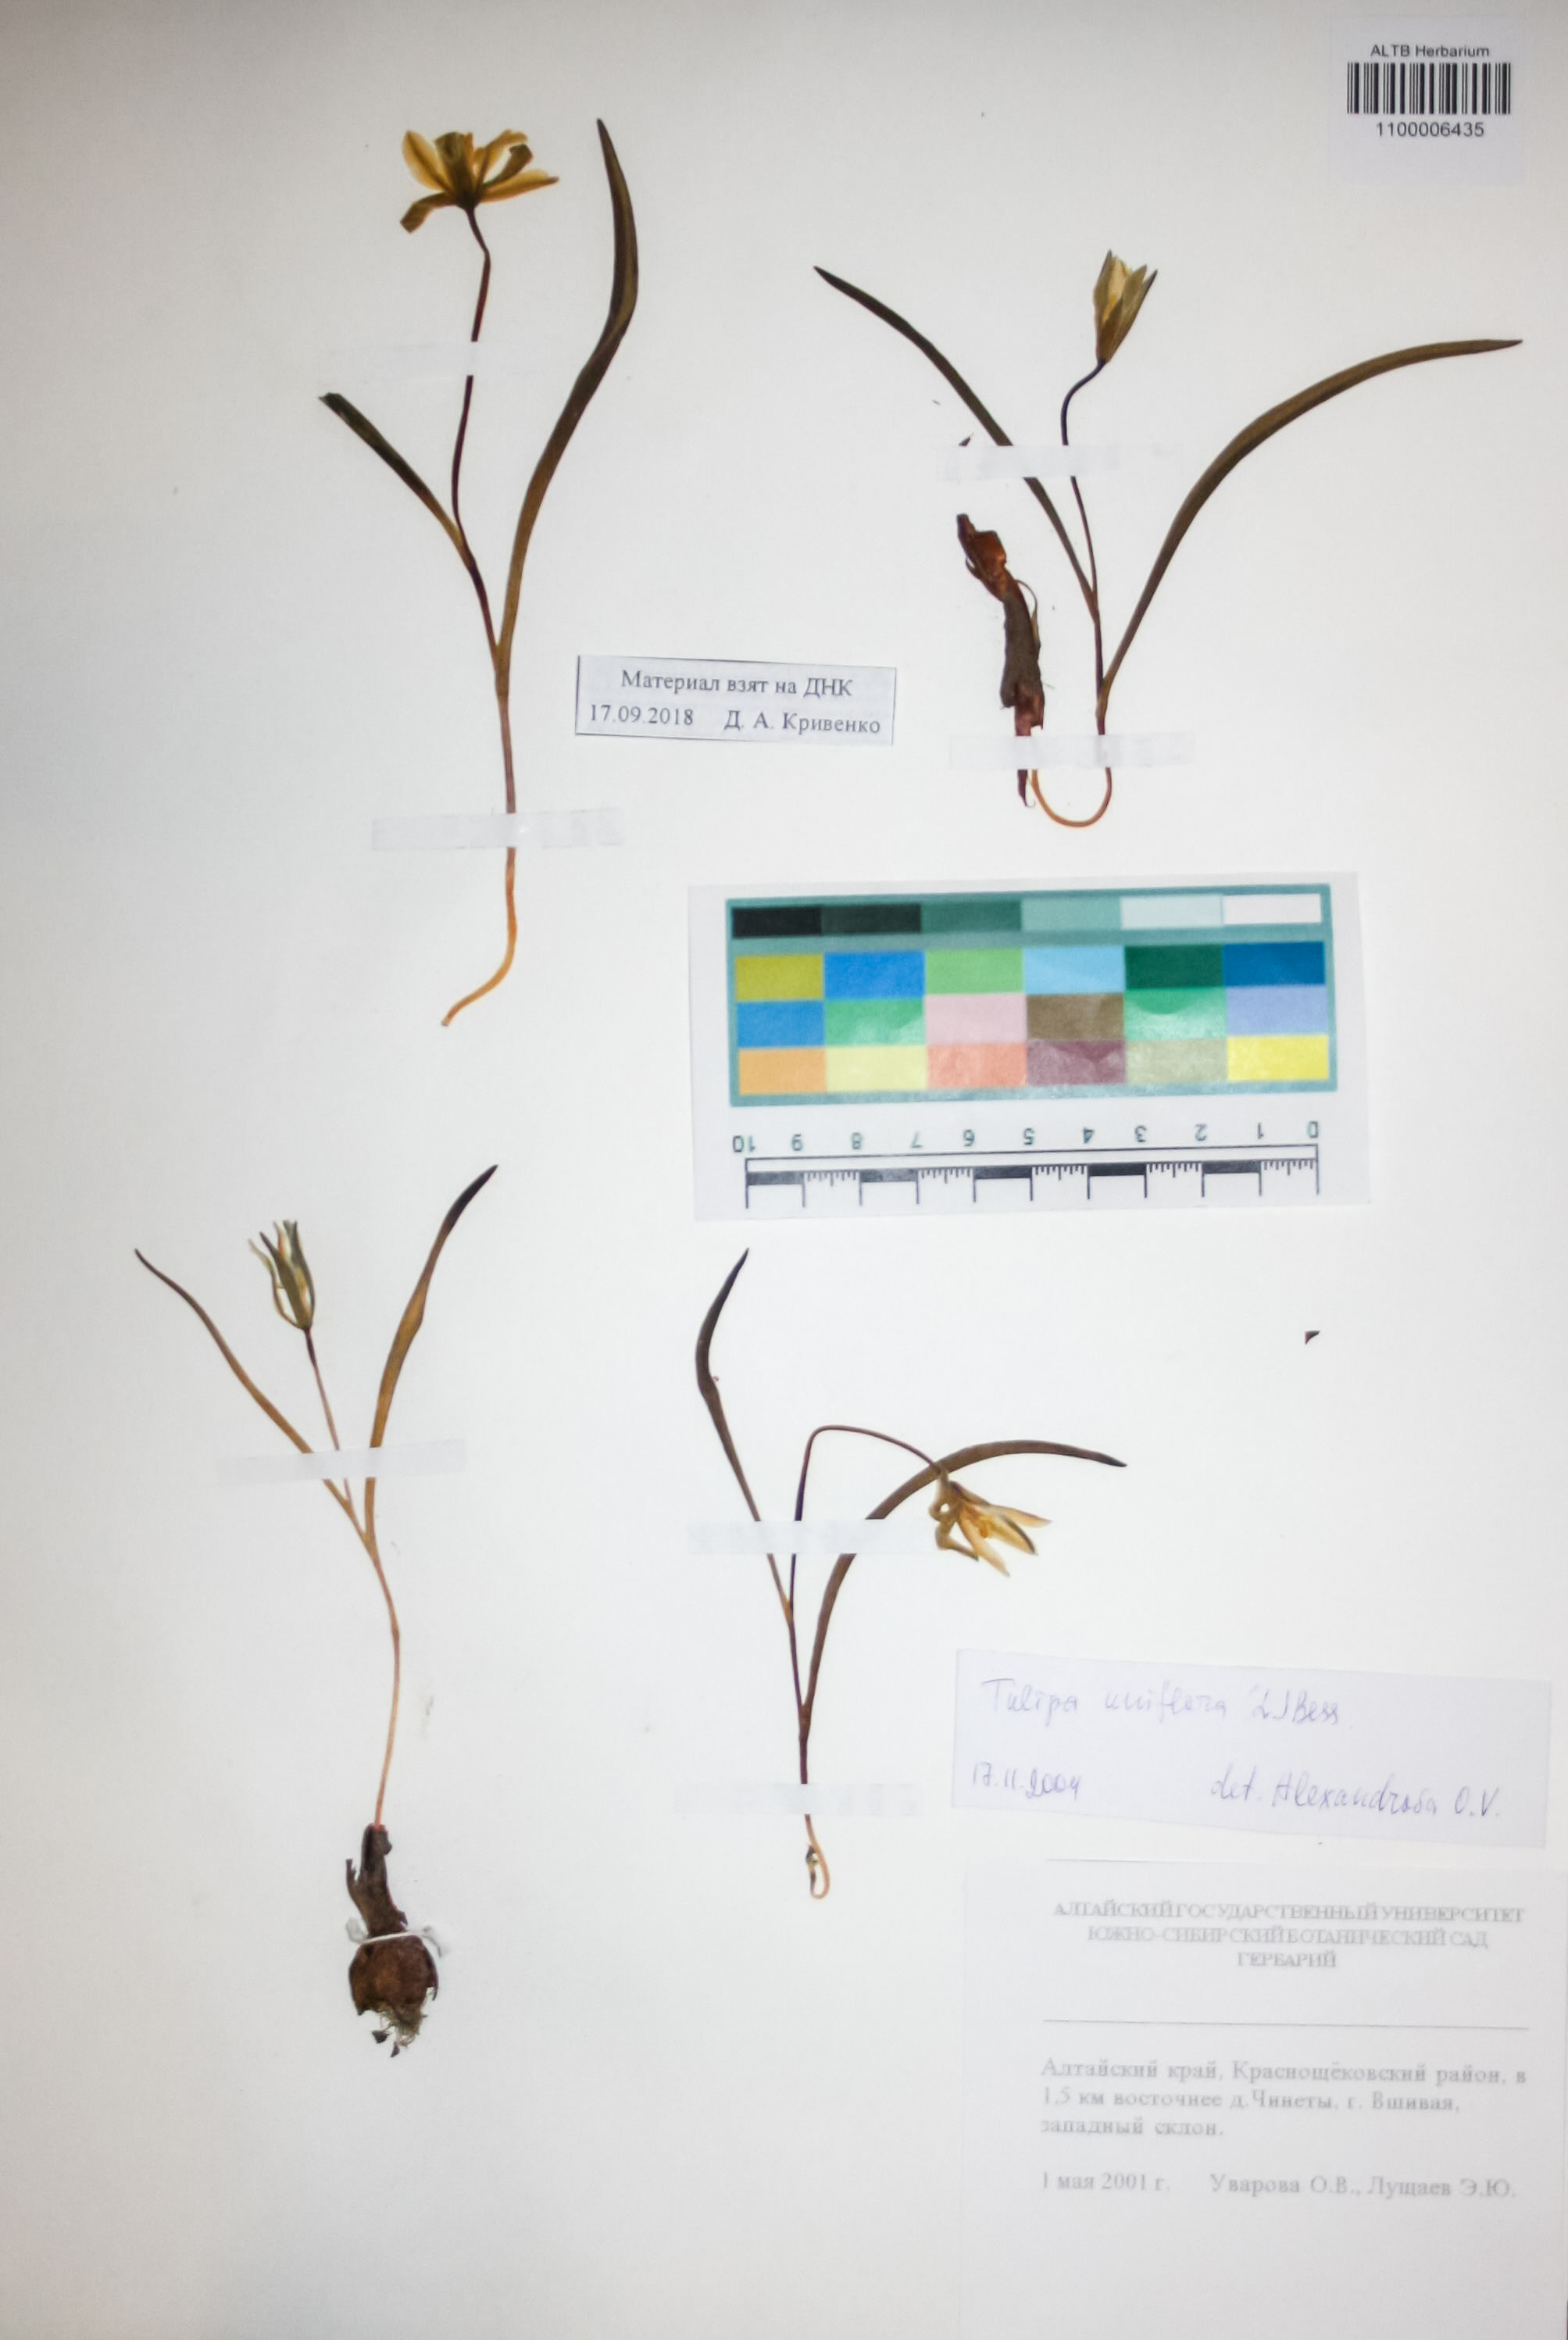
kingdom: Plantae
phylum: Tracheophyta
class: Liliopsida
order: Liliales
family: Liliaceae
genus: Tulipa
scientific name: Tulipa uniflora
